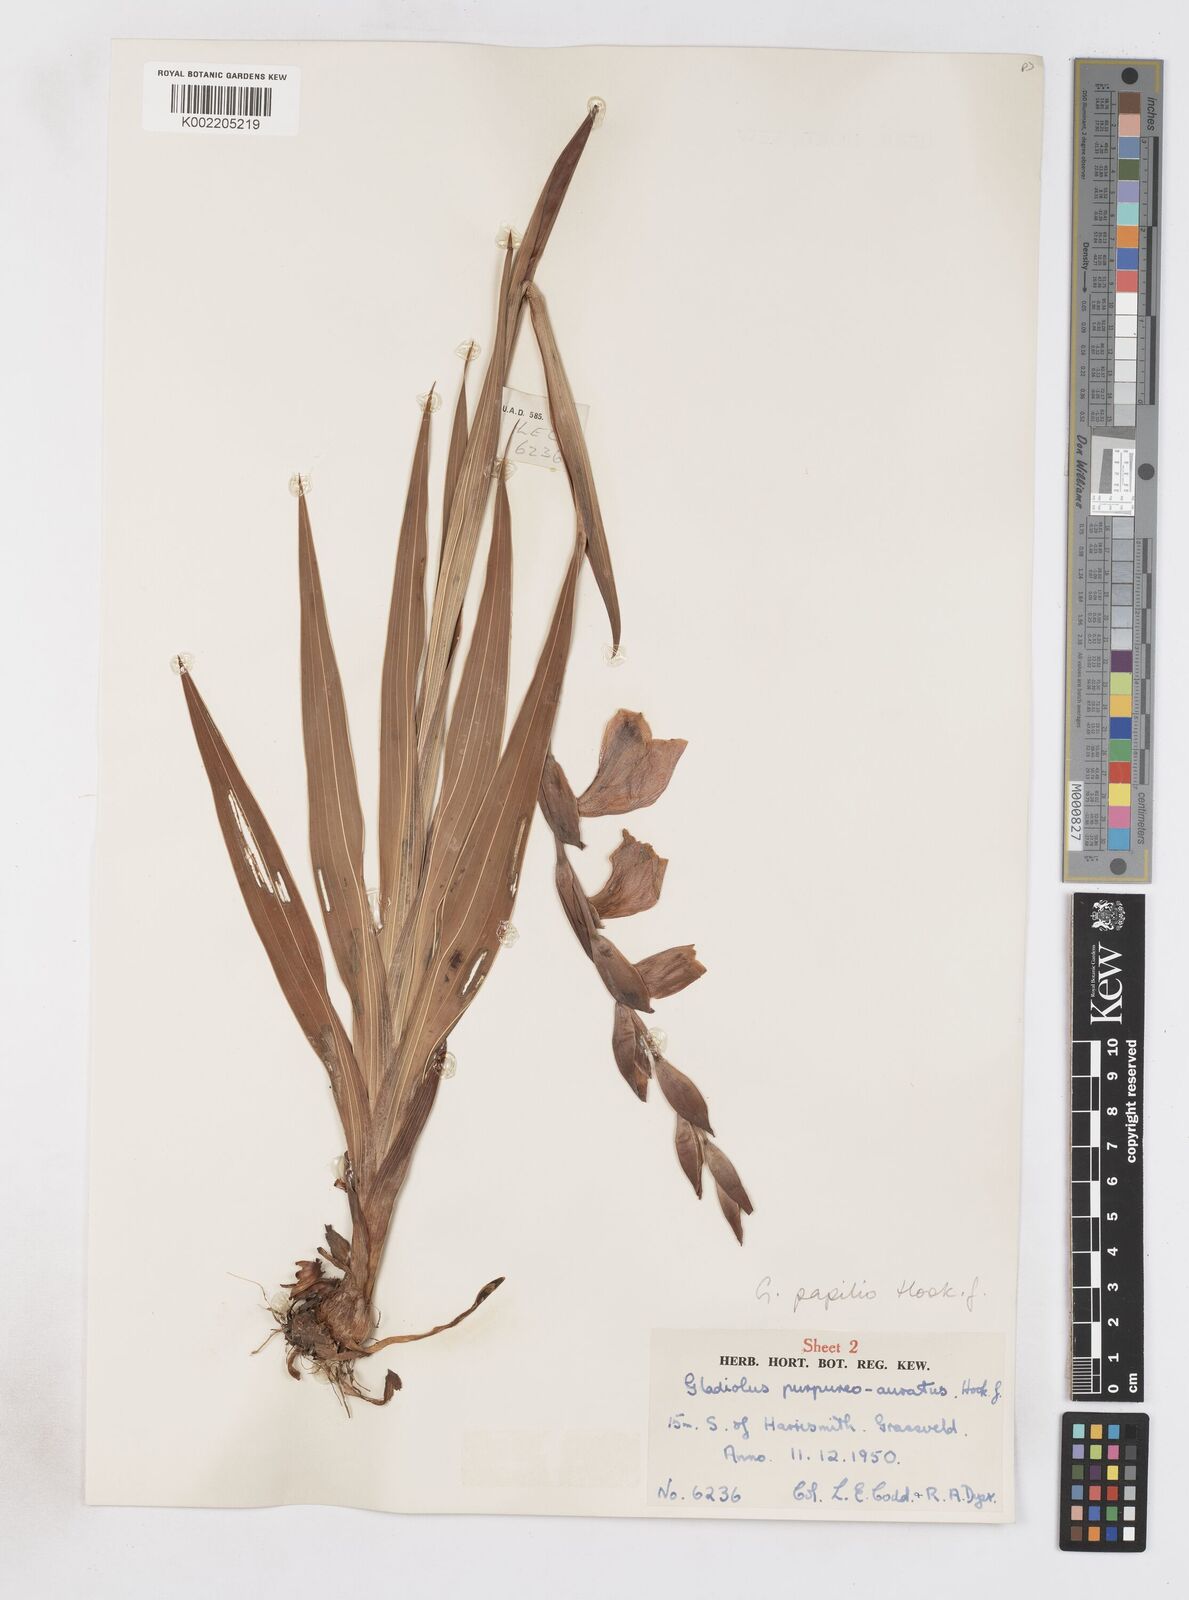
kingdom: Plantae
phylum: Tracheophyta
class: Liliopsida
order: Asparagales
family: Iridaceae
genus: Gladiolus
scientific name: Gladiolus papilio
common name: Goldblotch gladiolus
